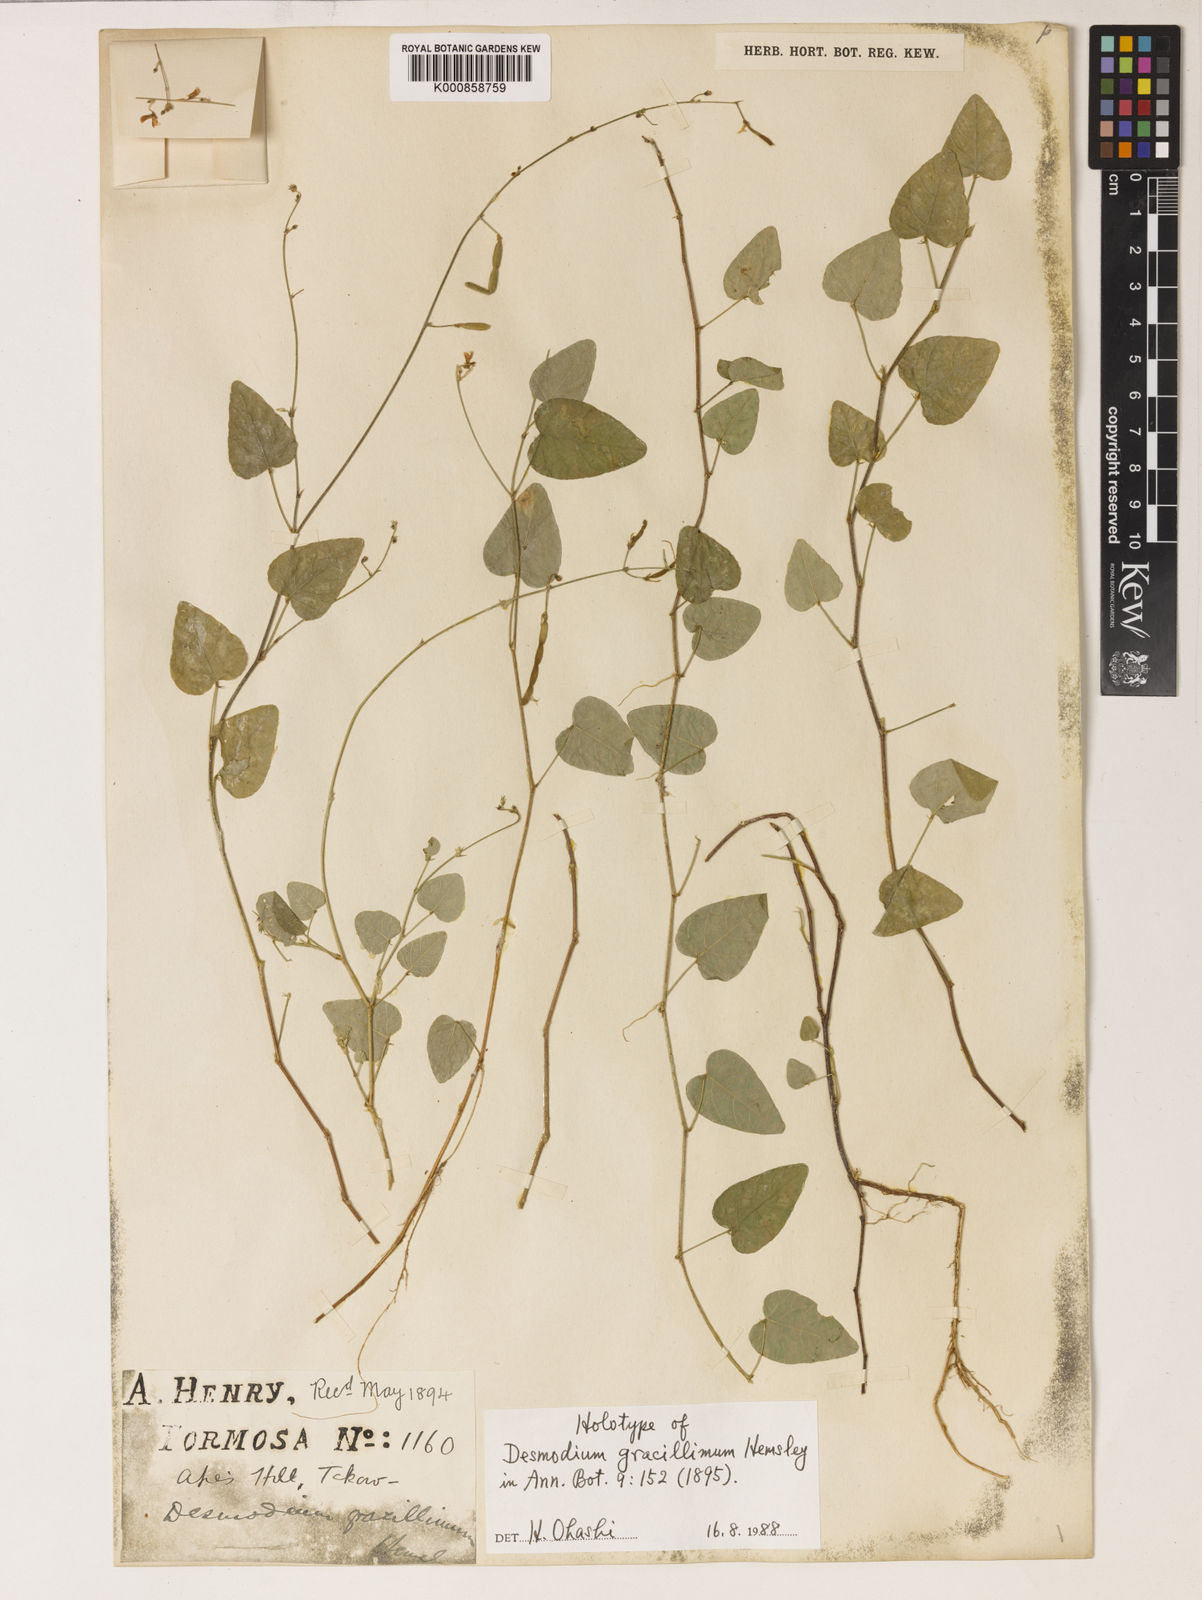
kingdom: Plantae
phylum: Tracheophyta
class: Magnoliopsida
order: Fabales
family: Fabaceae
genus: Sohmaea
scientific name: Sohmaea gracillima
